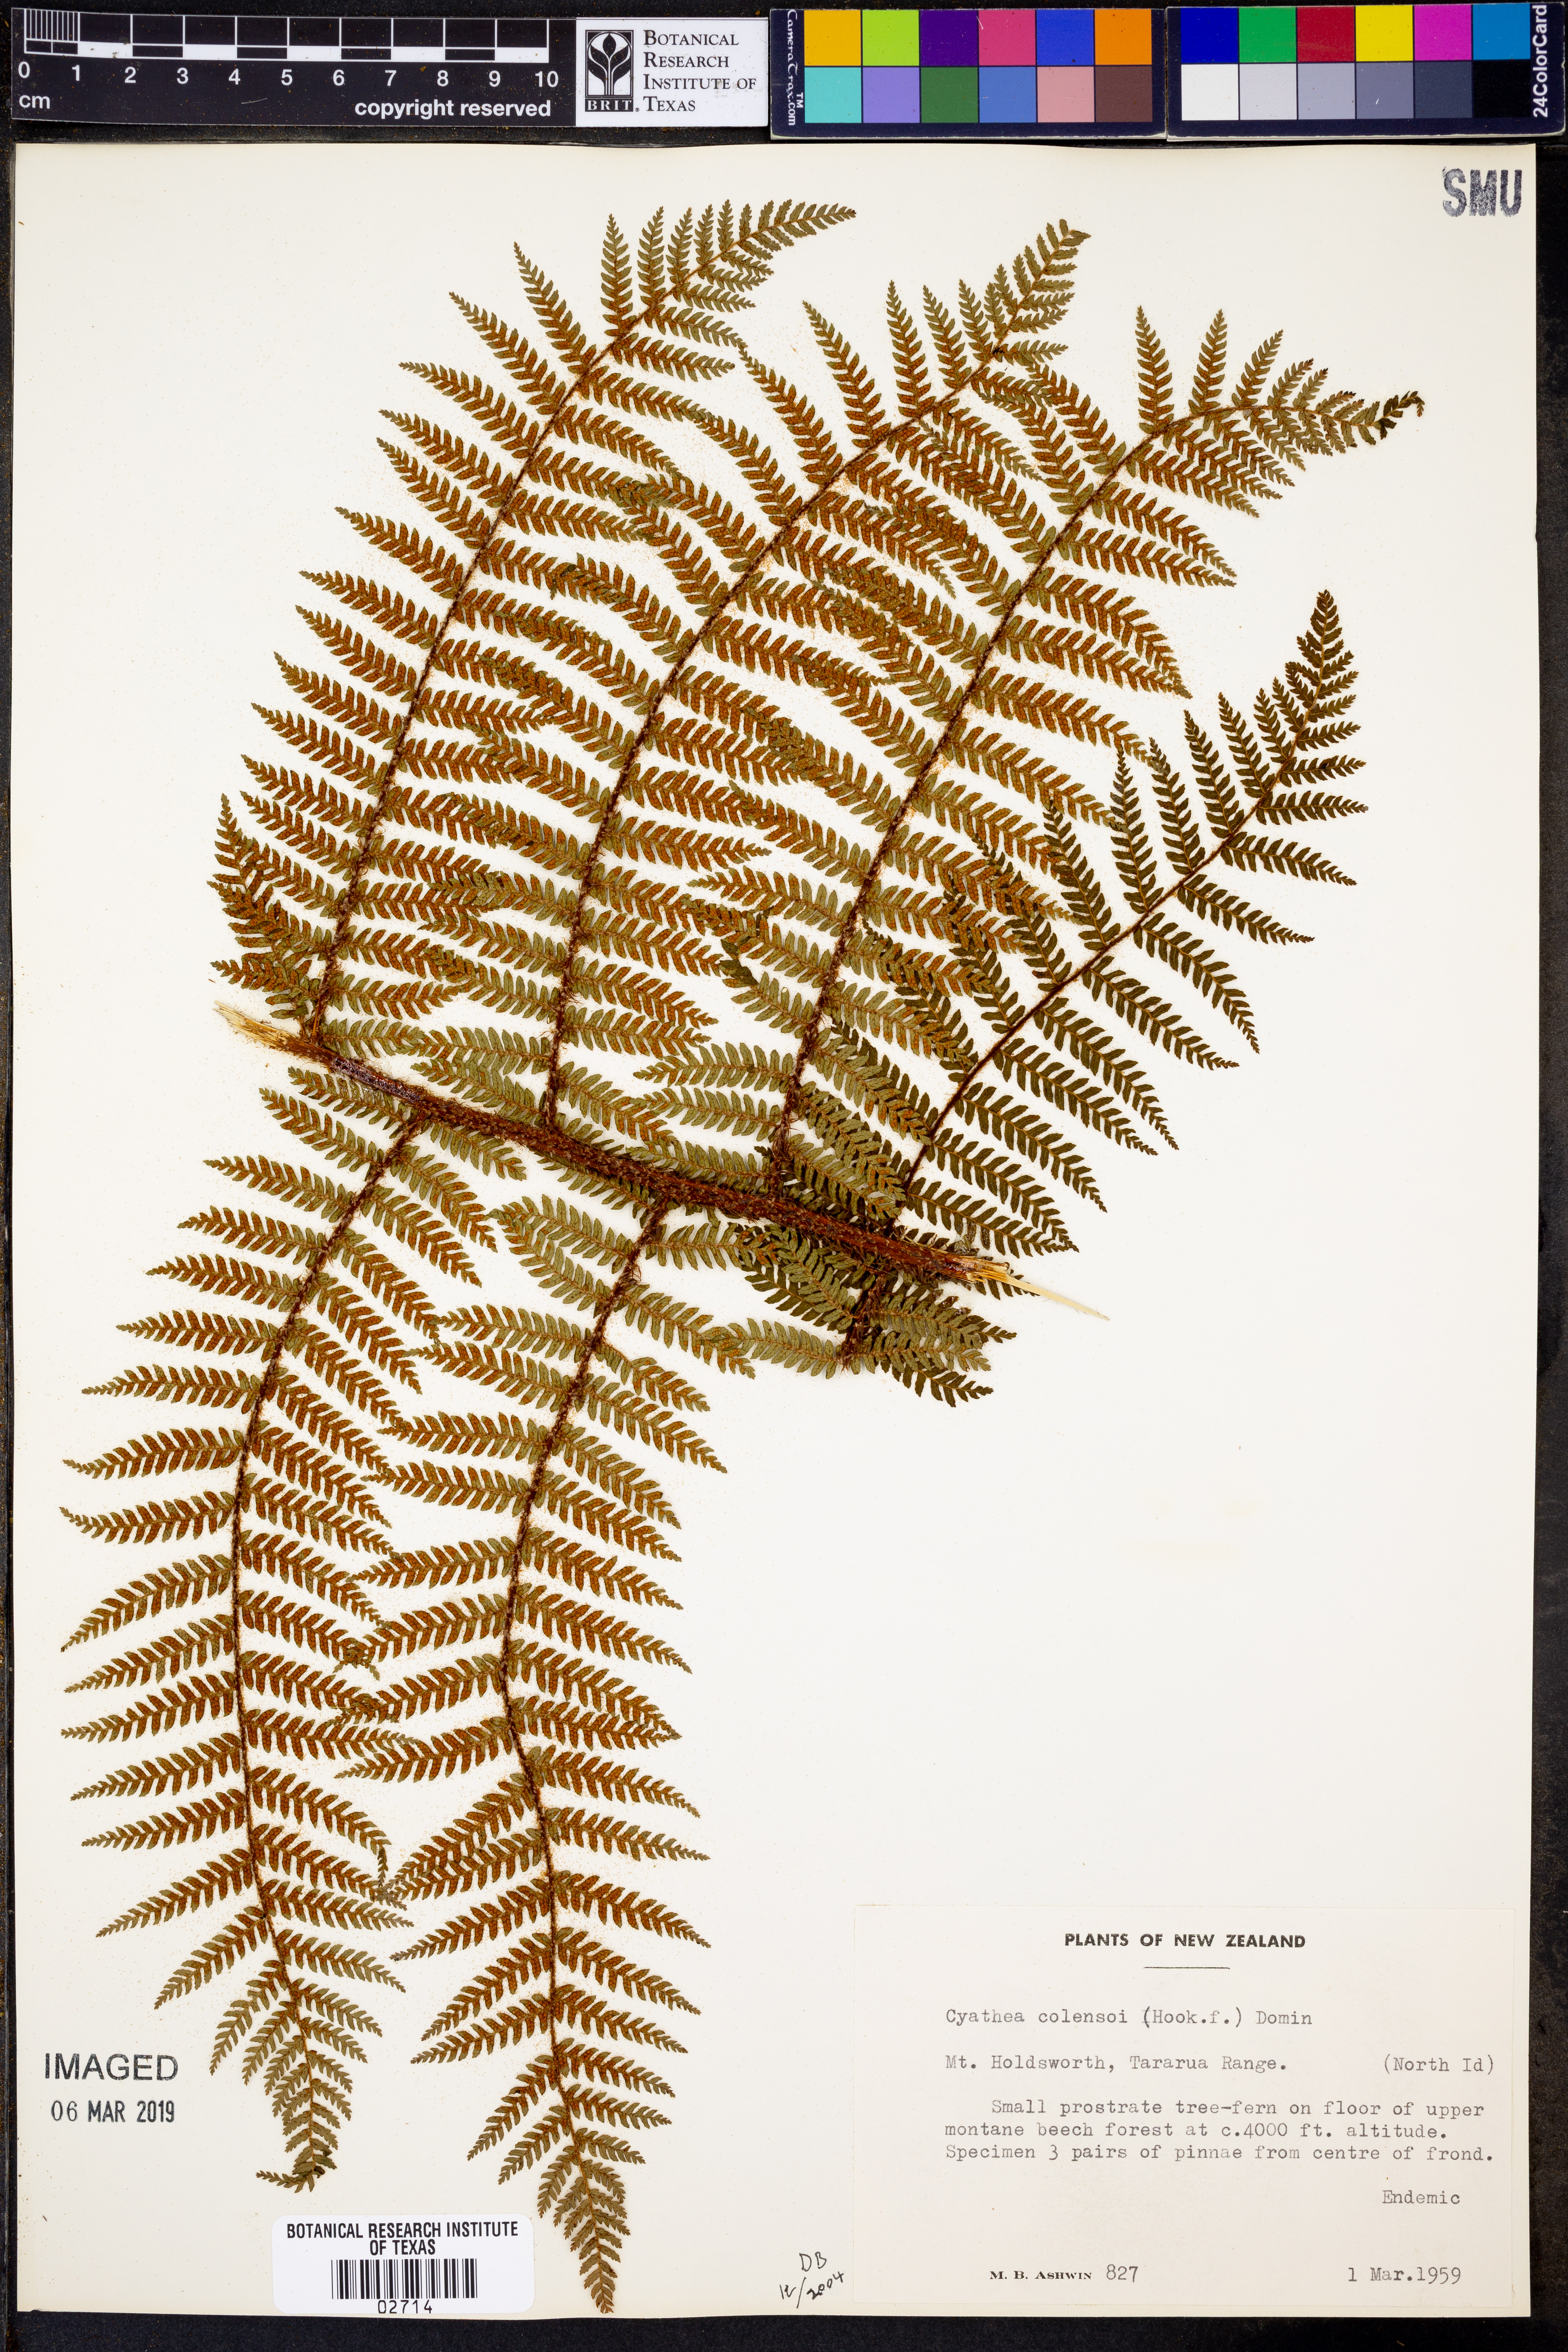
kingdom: Plantae
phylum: Tracheophyta
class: Polypodiopsida
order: Cyatheales
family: Cyatheaceae
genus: Alsophila
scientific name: Alsophila colensoi
